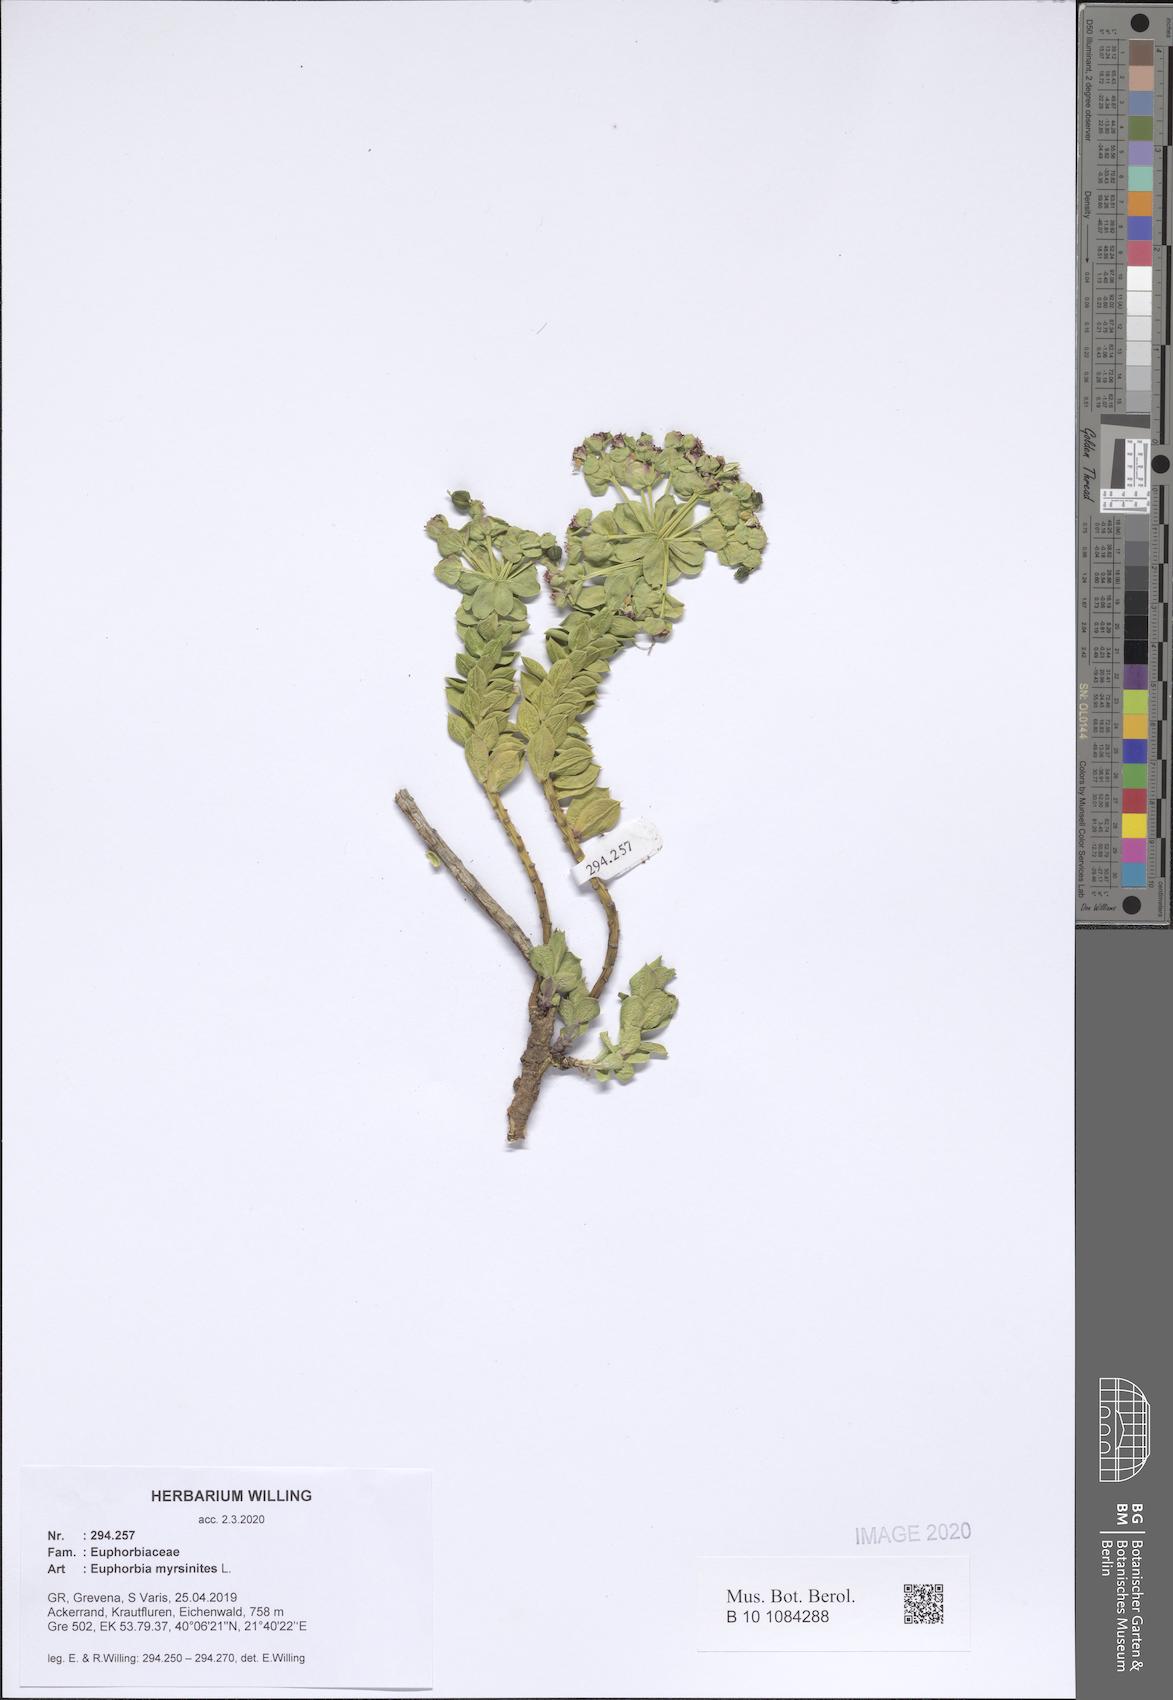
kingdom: Plantae
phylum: Tracheophyta
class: Magnoliopsida
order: Malpighiales
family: Euphorbiaceae
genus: Euphorbia
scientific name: Euphorbia myrsinites
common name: Myrtle spurge
